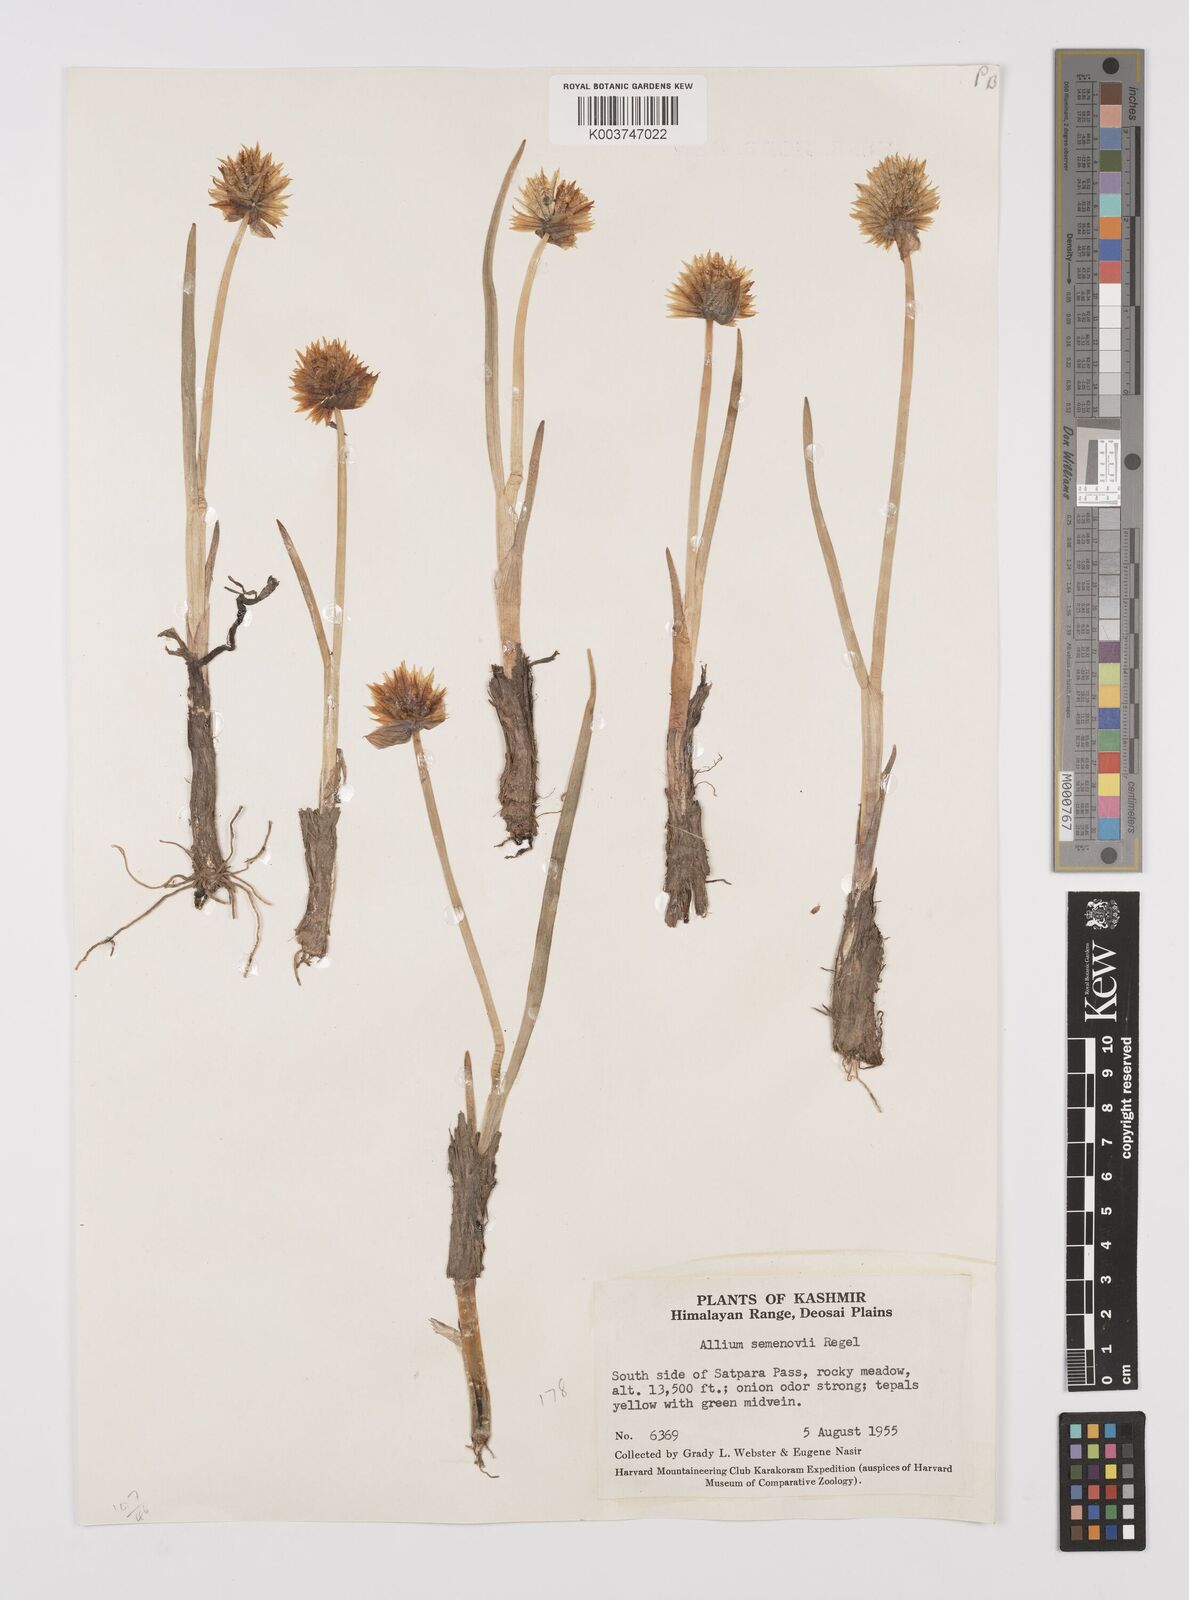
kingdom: Plantae
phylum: Tracheophyta
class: Liliopsida
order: Asparagales
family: Amaryllidaceae
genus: Allium
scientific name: Allium semenovii
